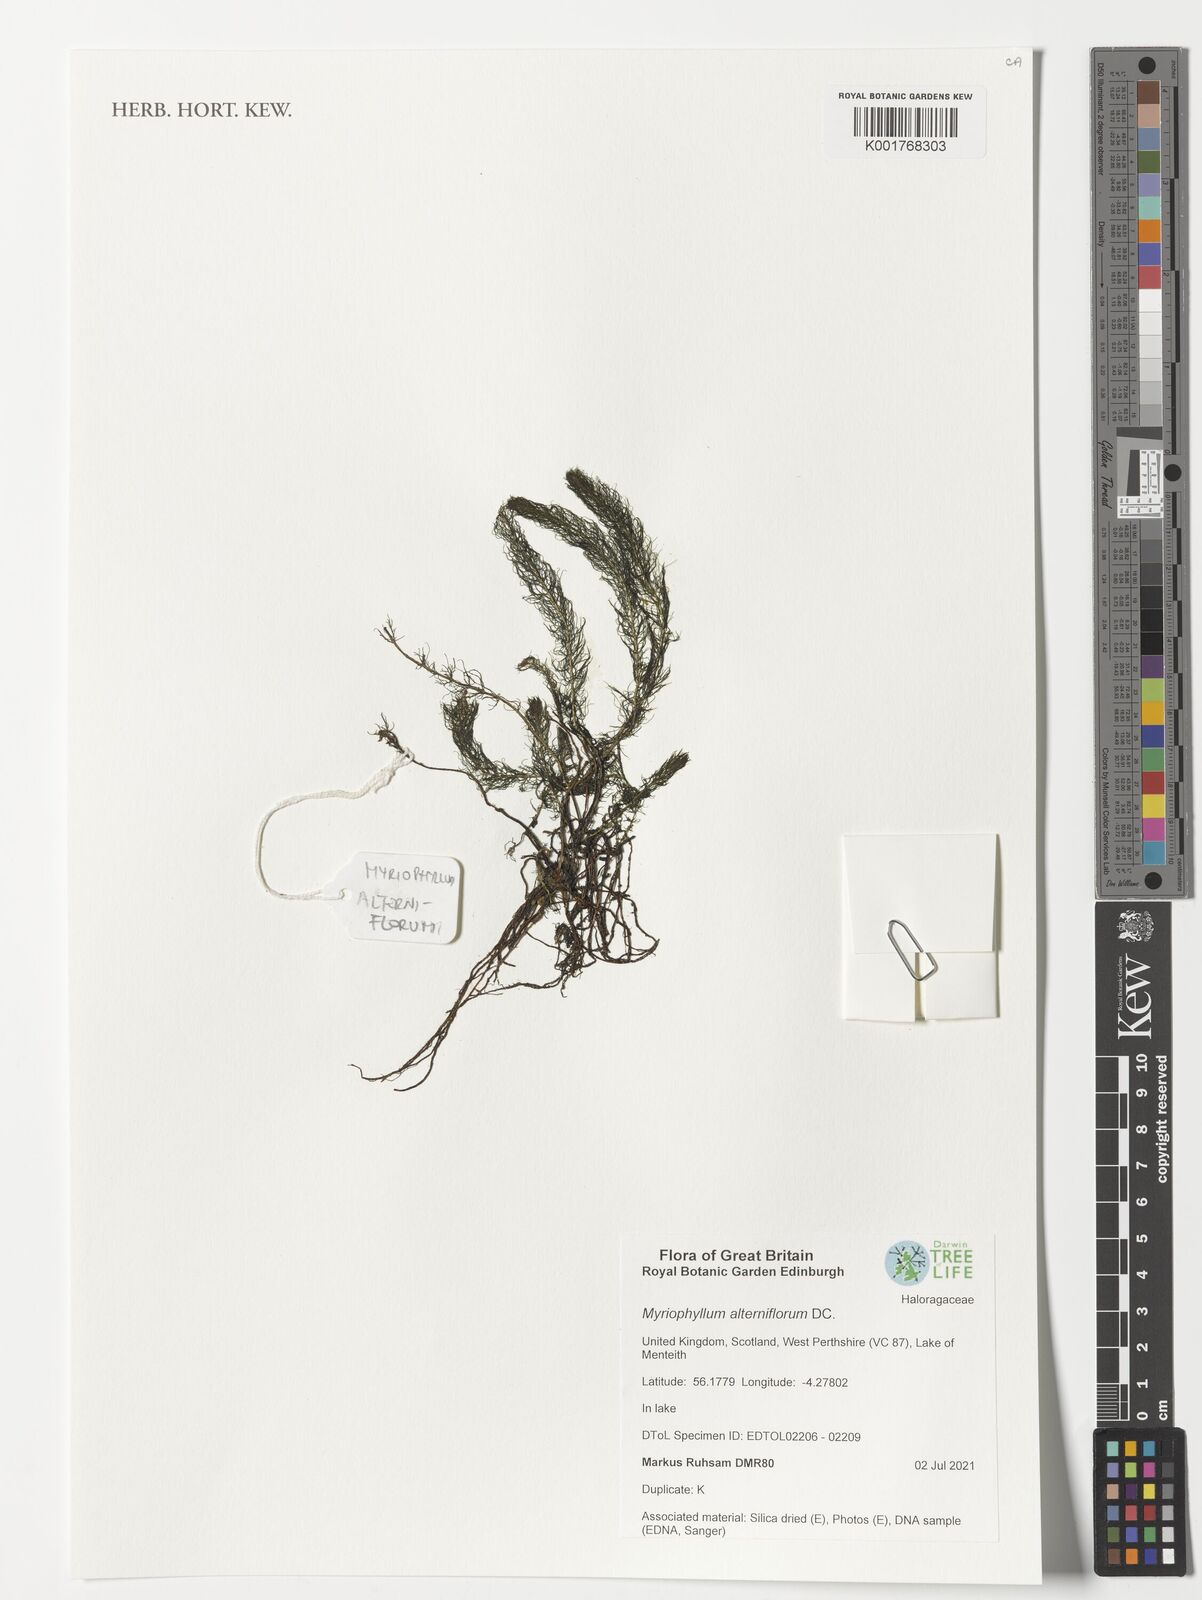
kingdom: Plantae
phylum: Tracheophyta
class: Magnoliopsida
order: Saxifragales
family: Haloragaceae
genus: Myriophyllum
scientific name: Myriophyllum alterniflorum
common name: Alternate water-milfoil
